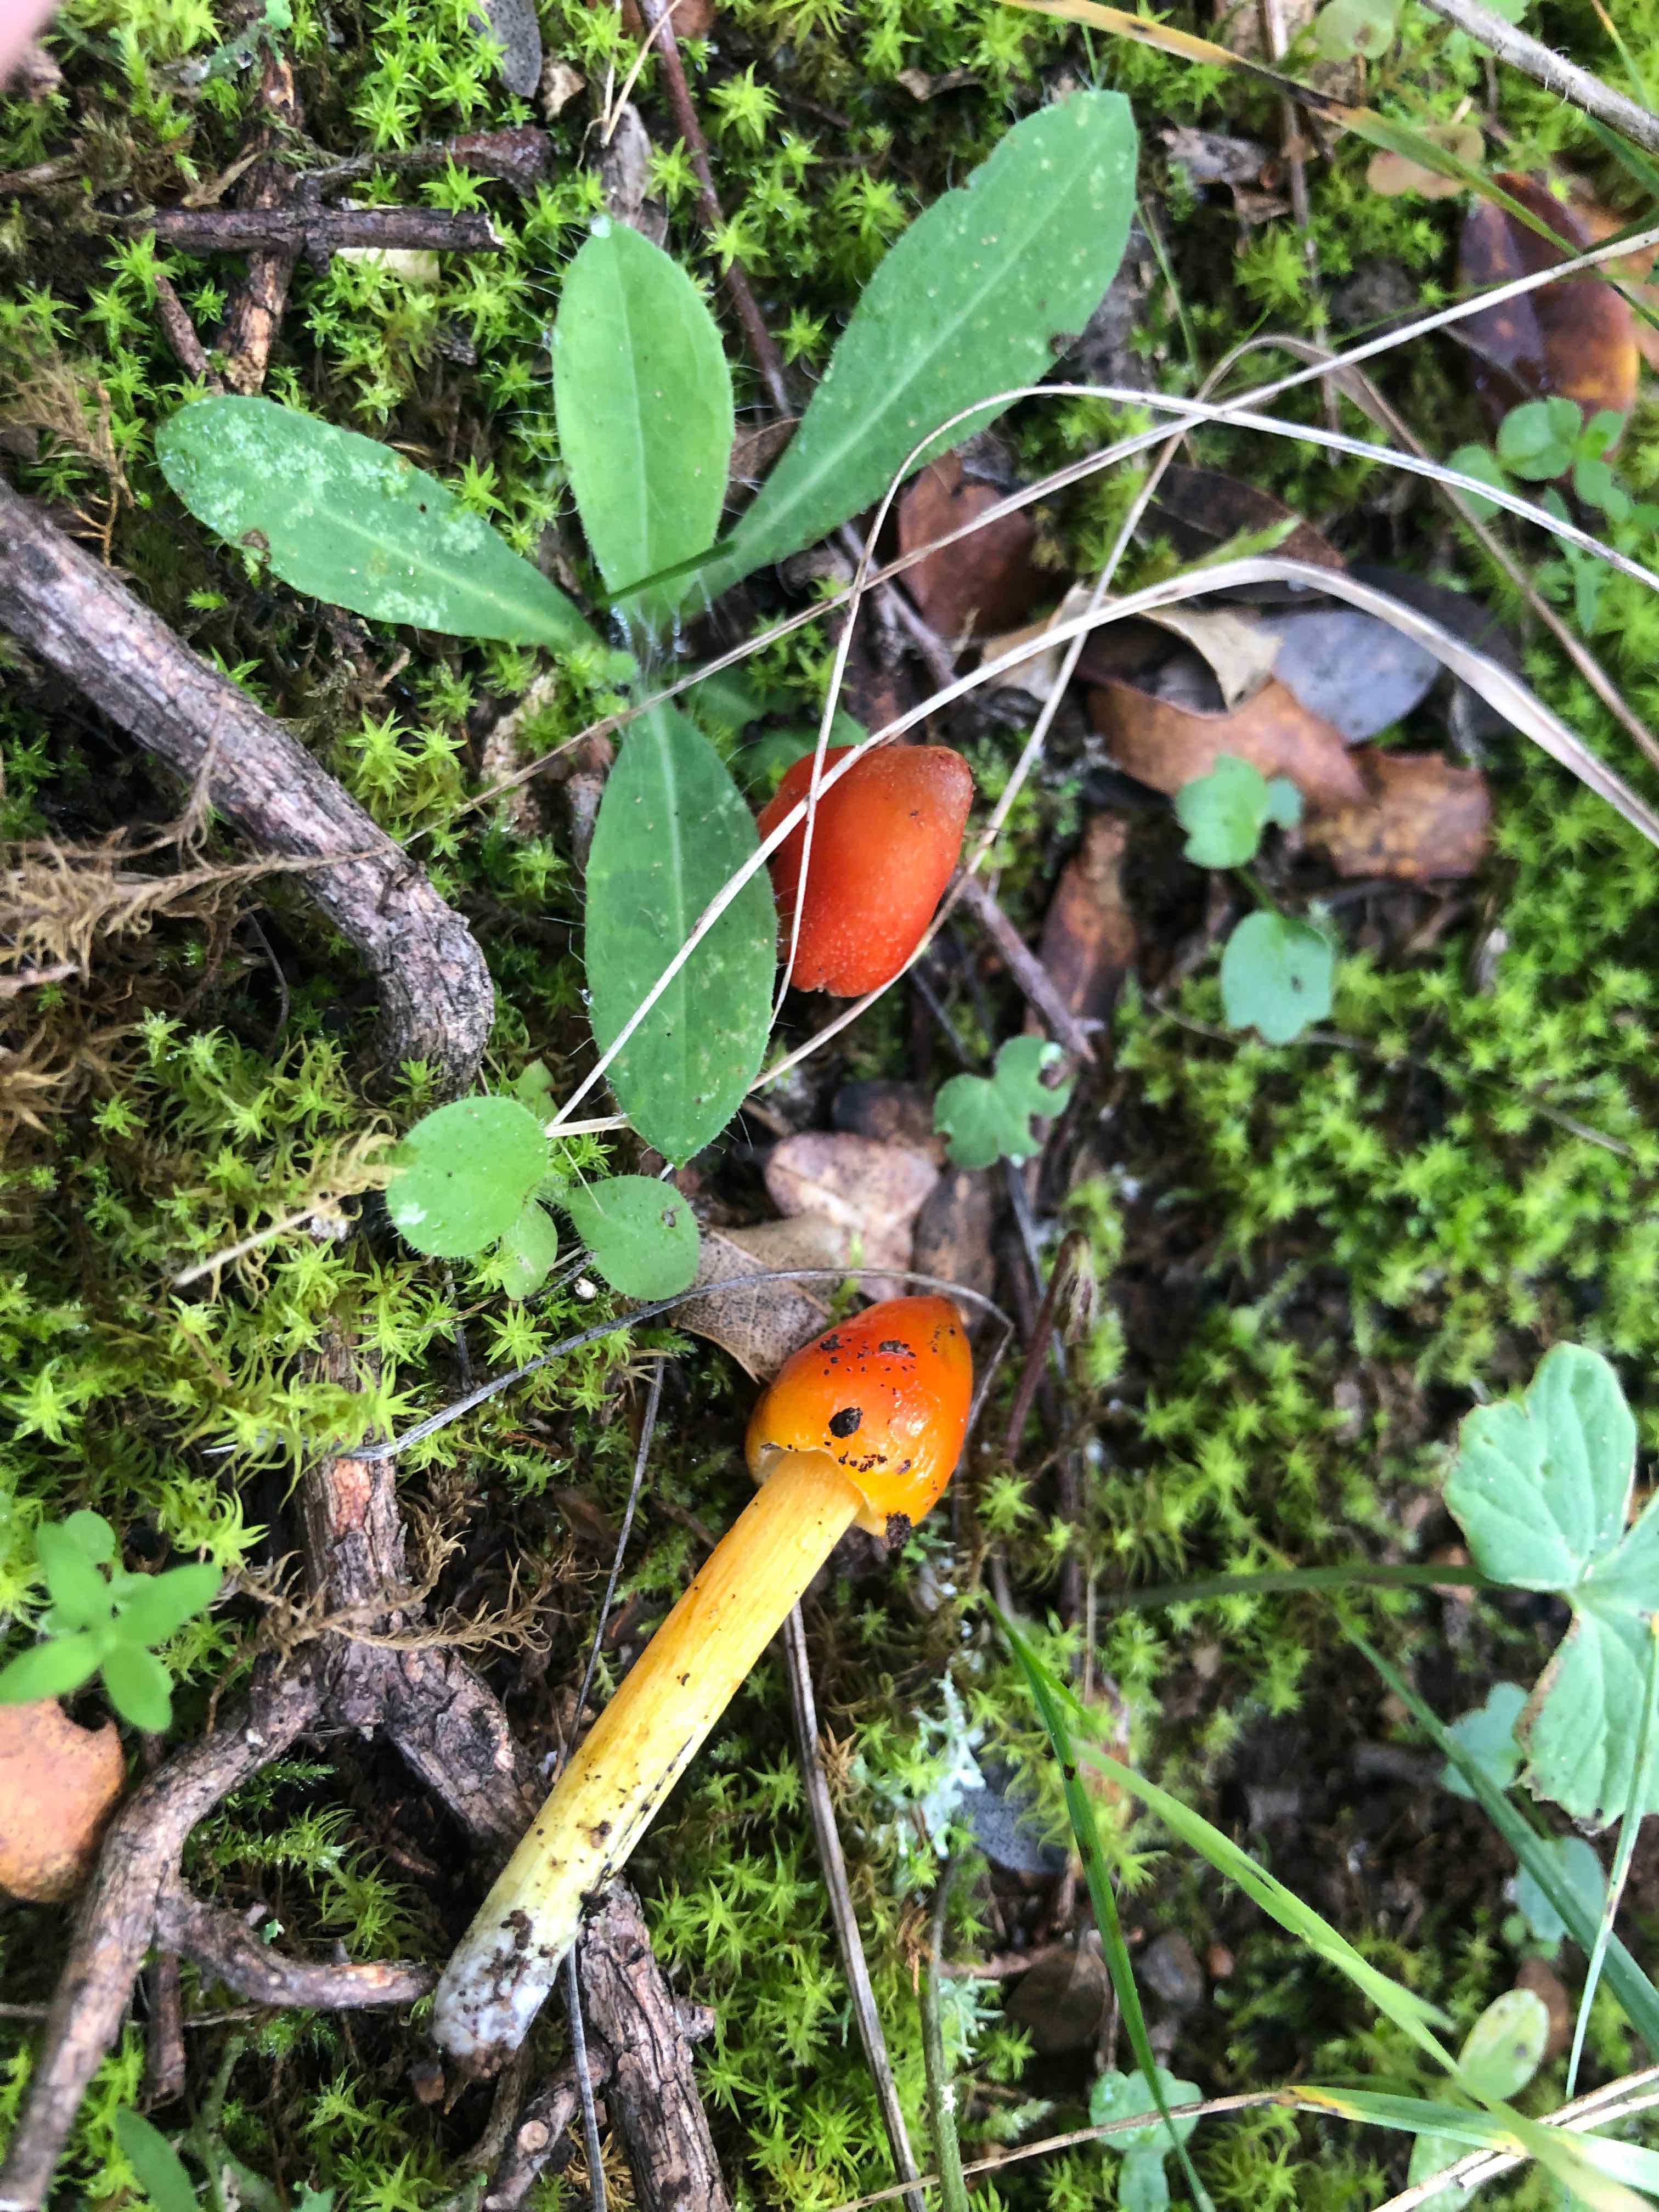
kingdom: Fungi
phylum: Basidiomycota
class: Agaricomycetes
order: Agaricales
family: Hygrophoraceae
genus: Hygrocybe
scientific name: Hygrocybe conica
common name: kegle-vokshat
